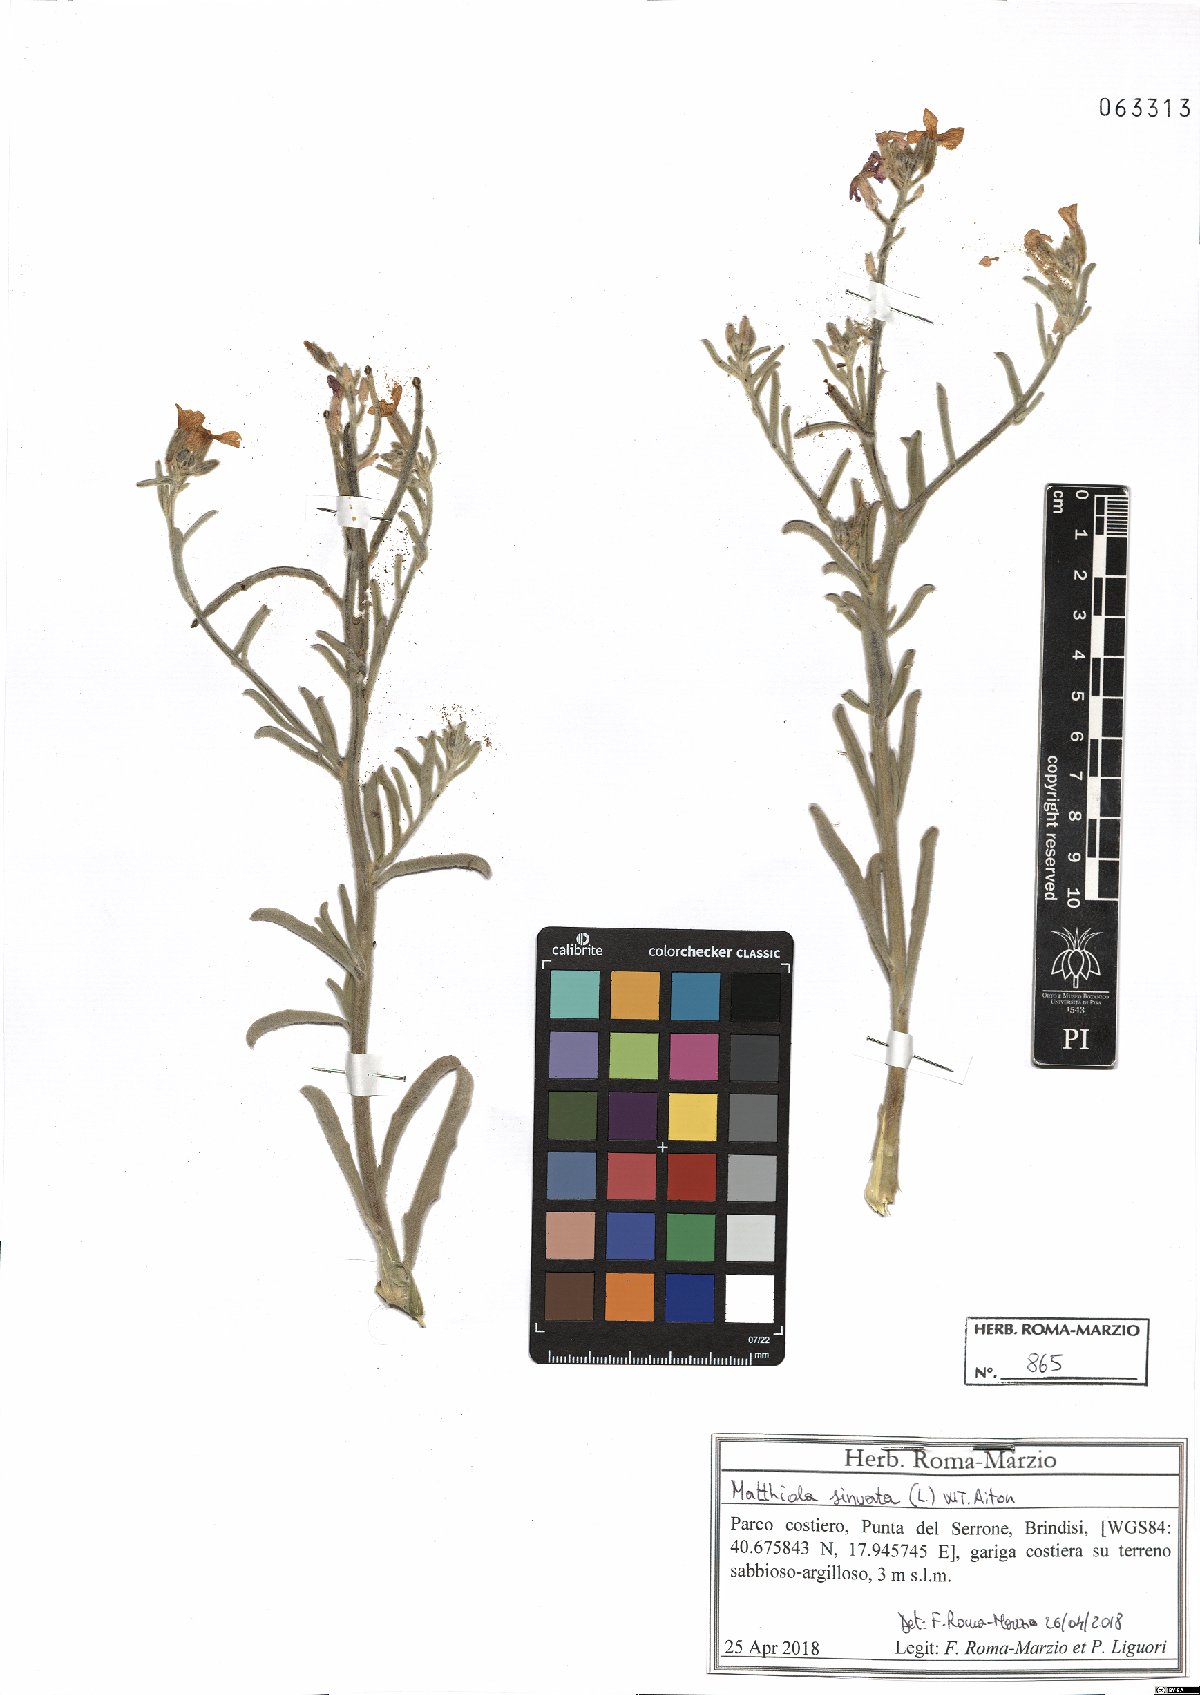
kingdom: Plantae
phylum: Tracheophyta
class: Magnoliopsida
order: Brassicales
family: Brassicaceae
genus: Matthiola
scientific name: Matthiola sinuata
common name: Sea stock
